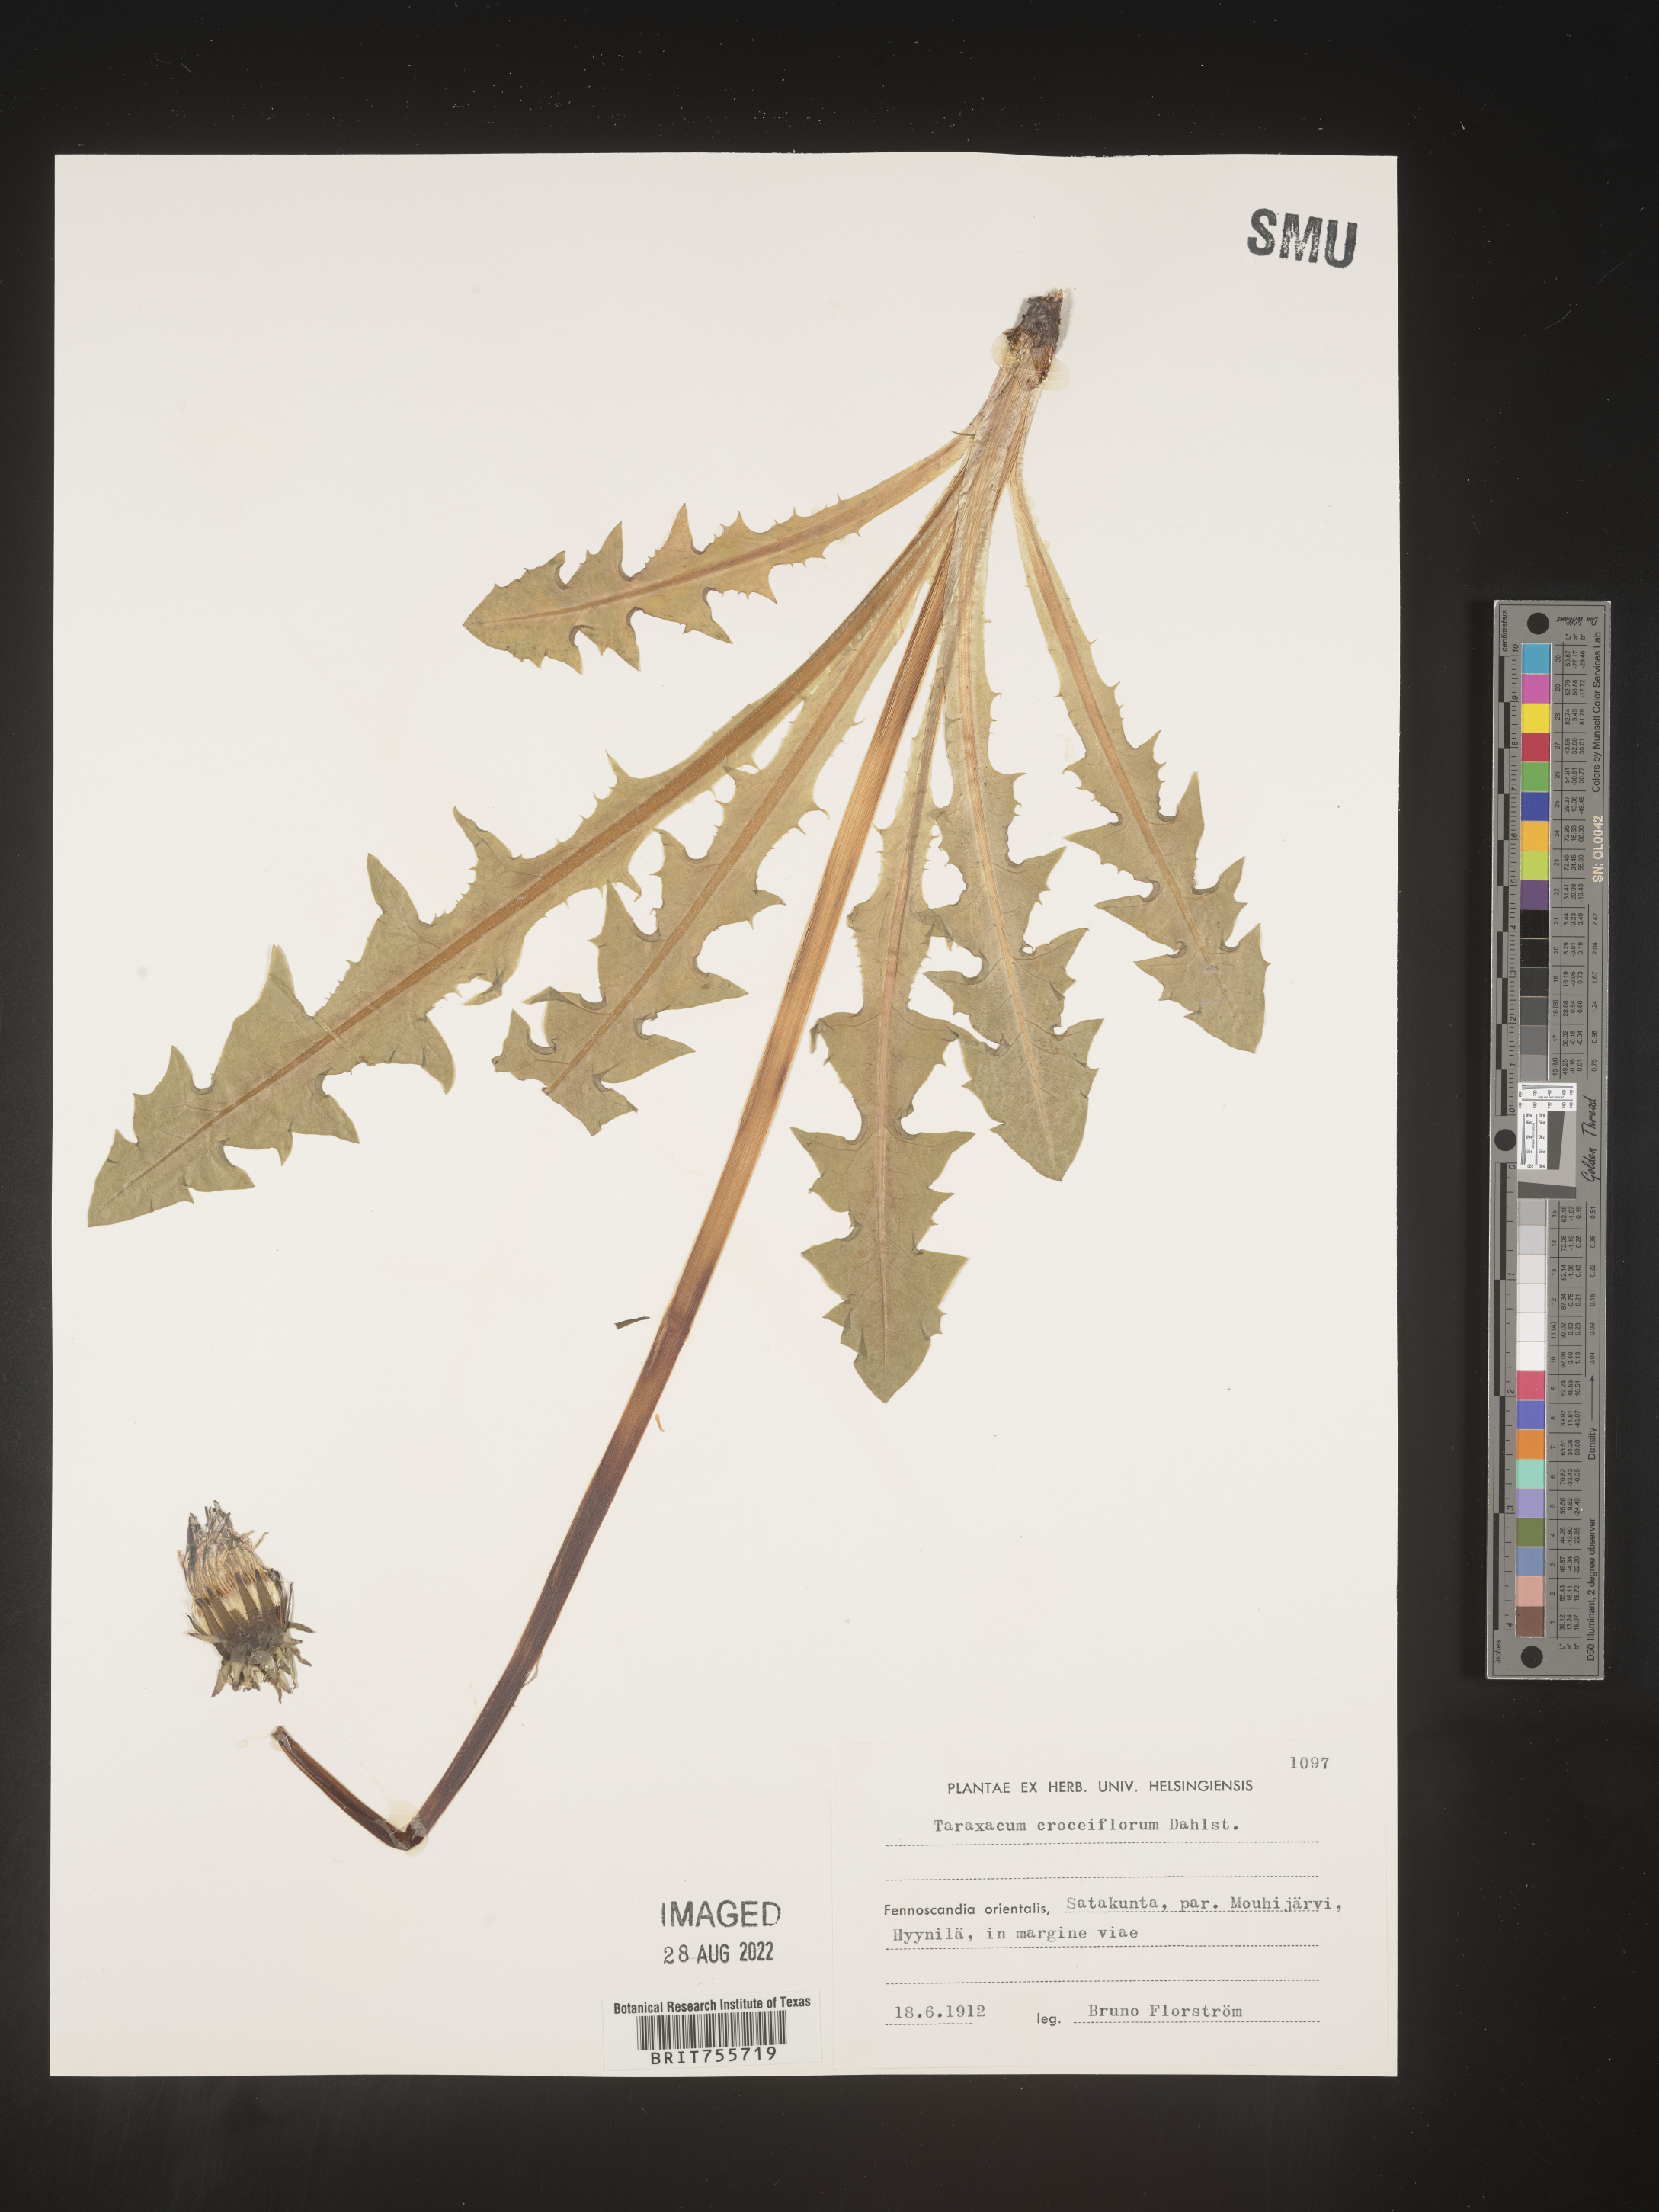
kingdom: Plantae
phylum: Tracheophyta
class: Magnoliopsida
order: Asterales
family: Asteraceae
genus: Taraxacum
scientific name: Taraxacum
